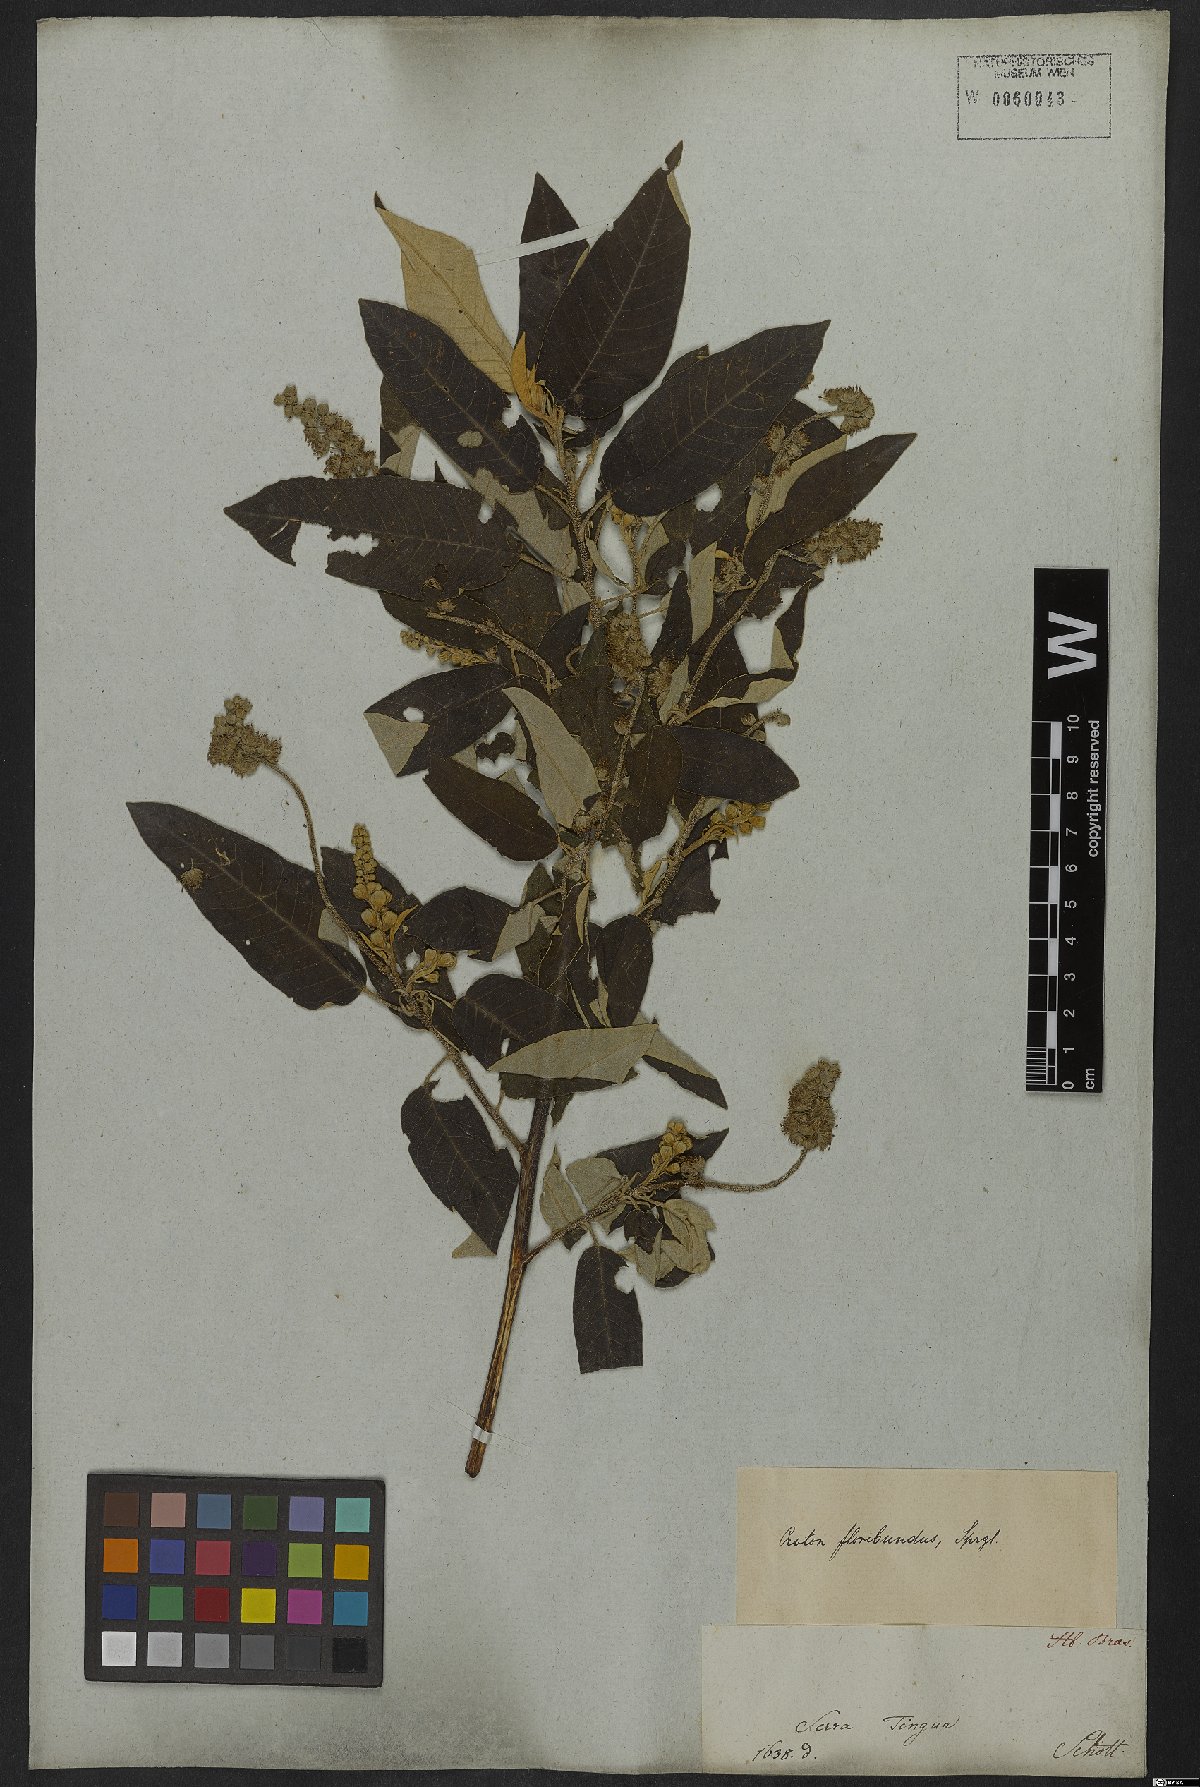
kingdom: Plantae
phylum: Tracheophyta
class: Magnoliopsida
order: Malpighiales
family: Euphorbiaceae
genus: Croton
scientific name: Croton floribundus
